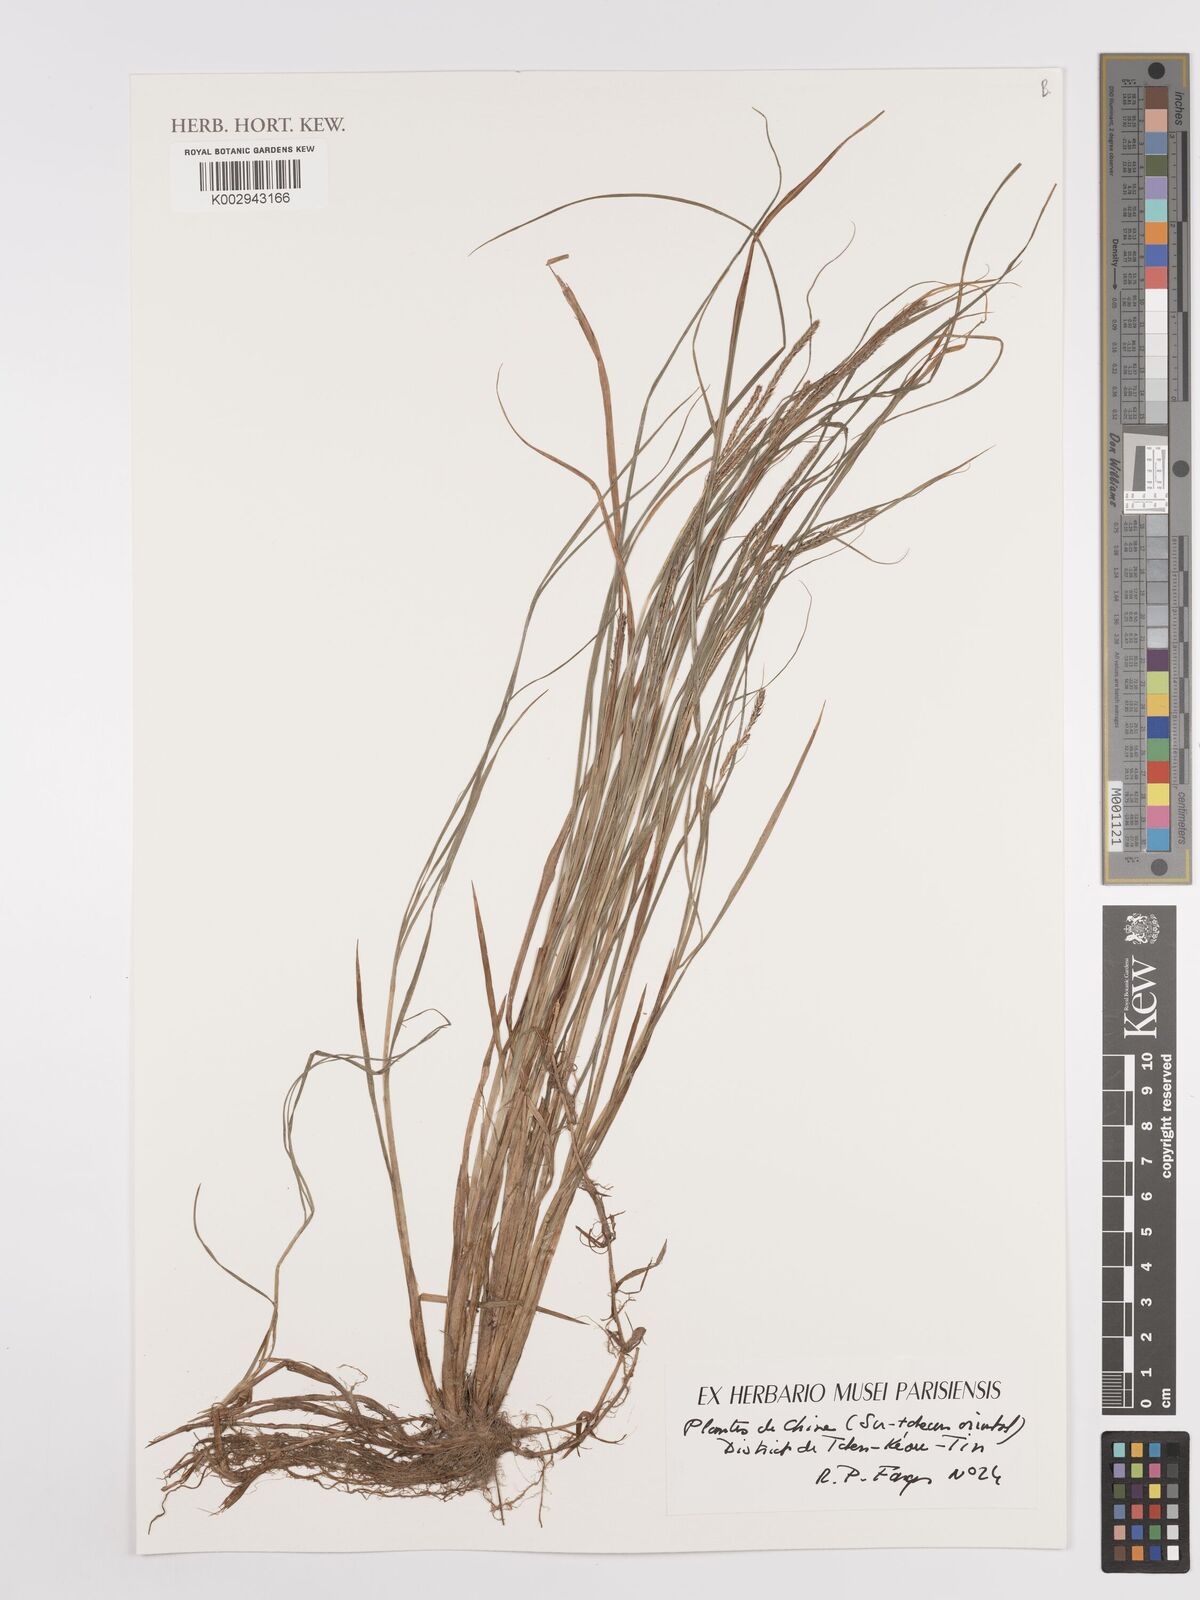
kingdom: Plantae
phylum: Tracheophyta
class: Liliopsida
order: Poales
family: Cyperaceae
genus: Carex
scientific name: Carex
